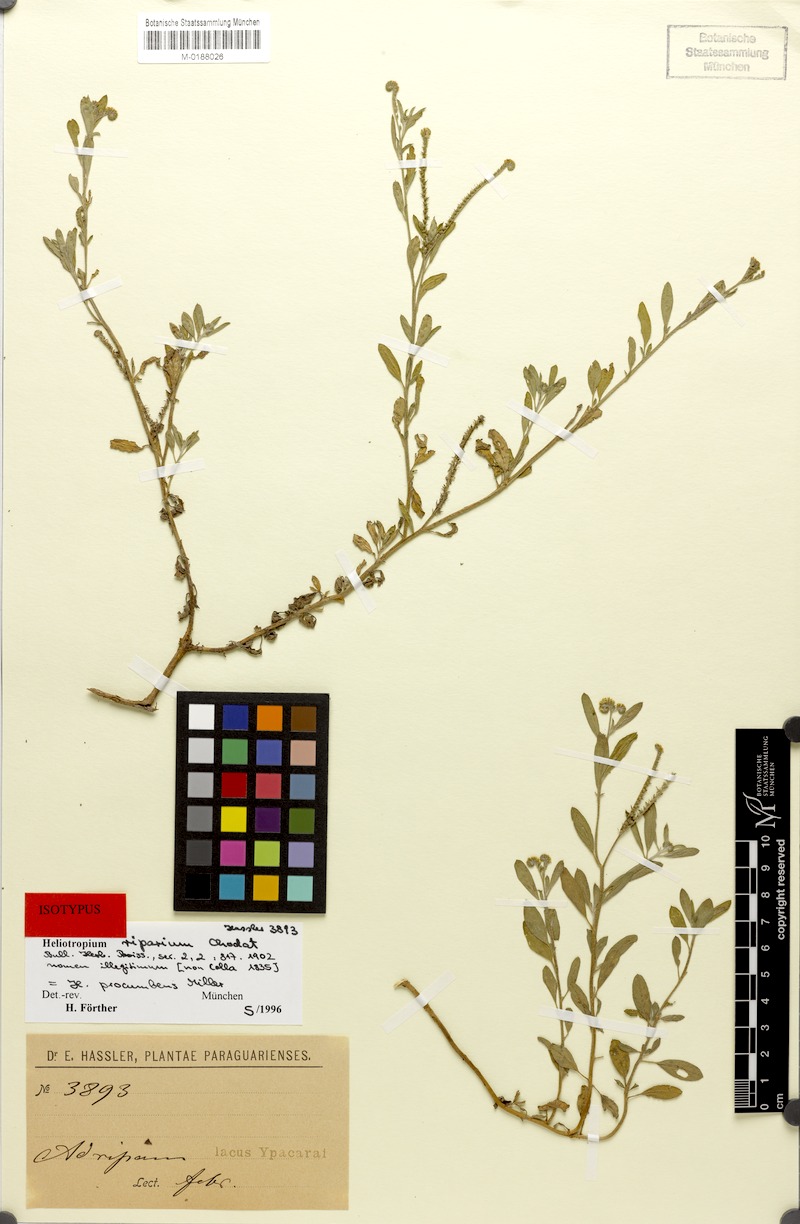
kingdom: Plantae
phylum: Tracheophyta
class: Magnoliopsida
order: Boraginales
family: Heliotropiaceae
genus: Euploca
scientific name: Euploca procumbens
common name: Fourspike heliotrope
